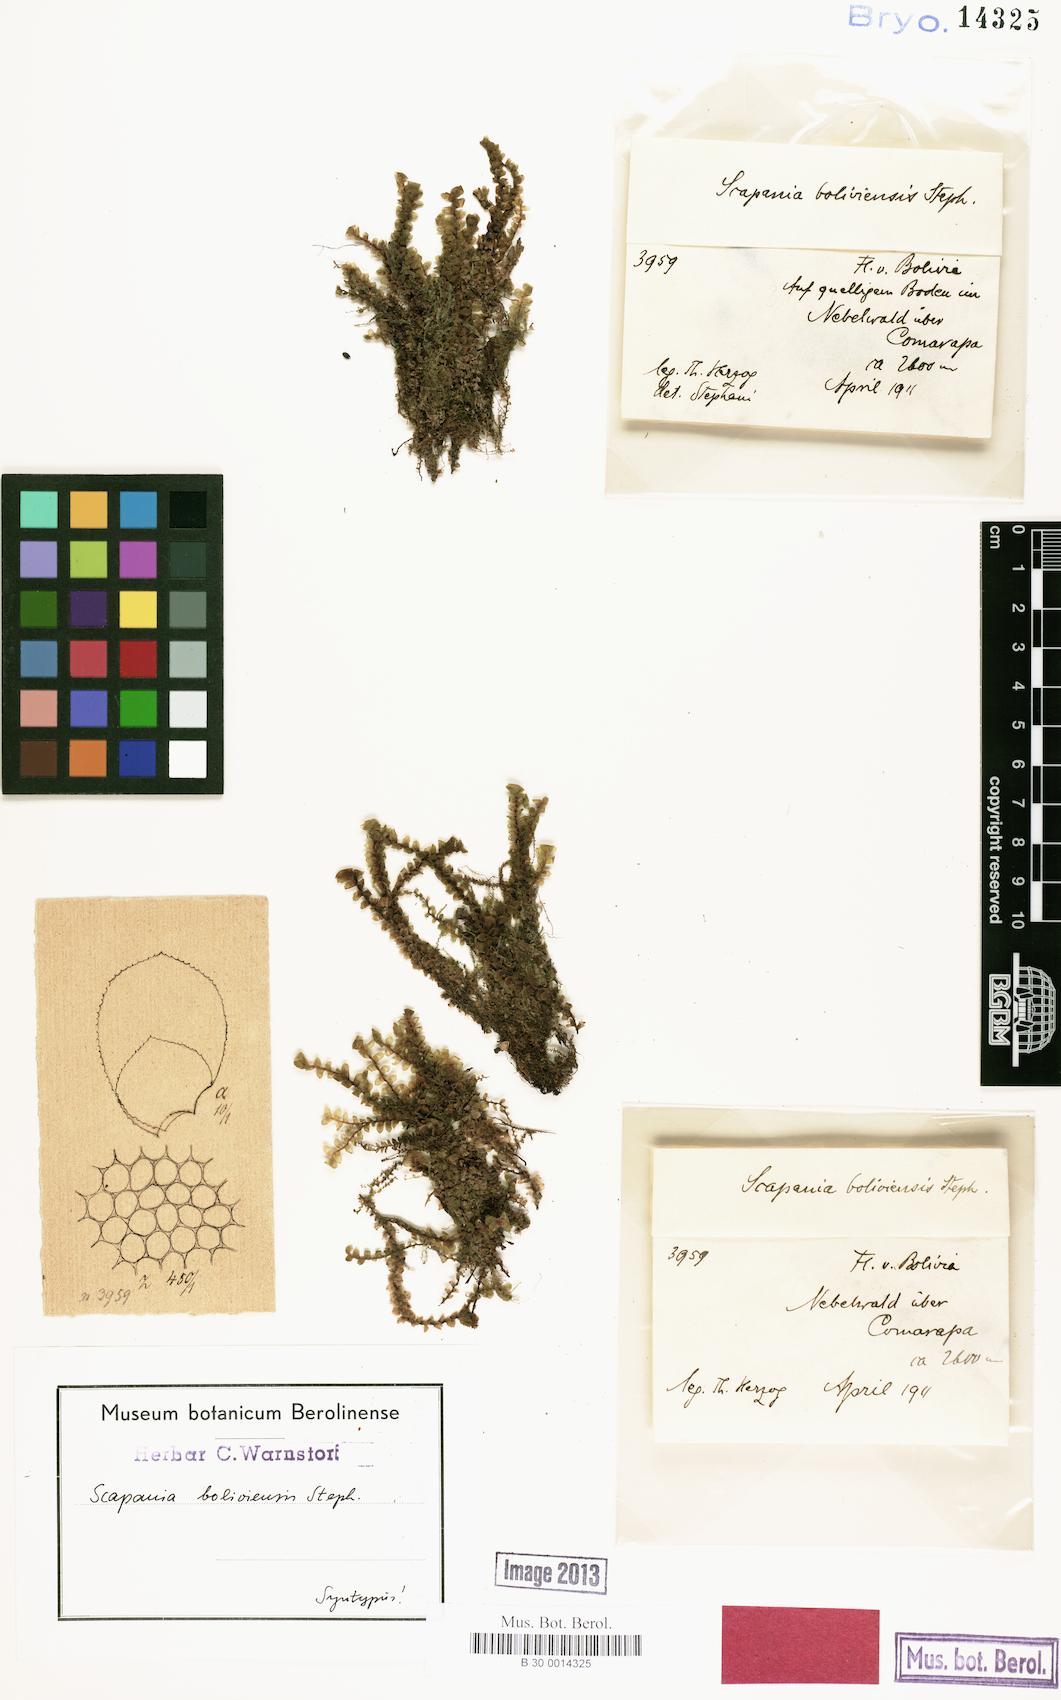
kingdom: Plantae
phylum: Marchantiophyta
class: Jungermanniopsida
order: Jungermanniales
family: Scapaniaceae
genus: Scapania
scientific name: Scapania portoricensis
